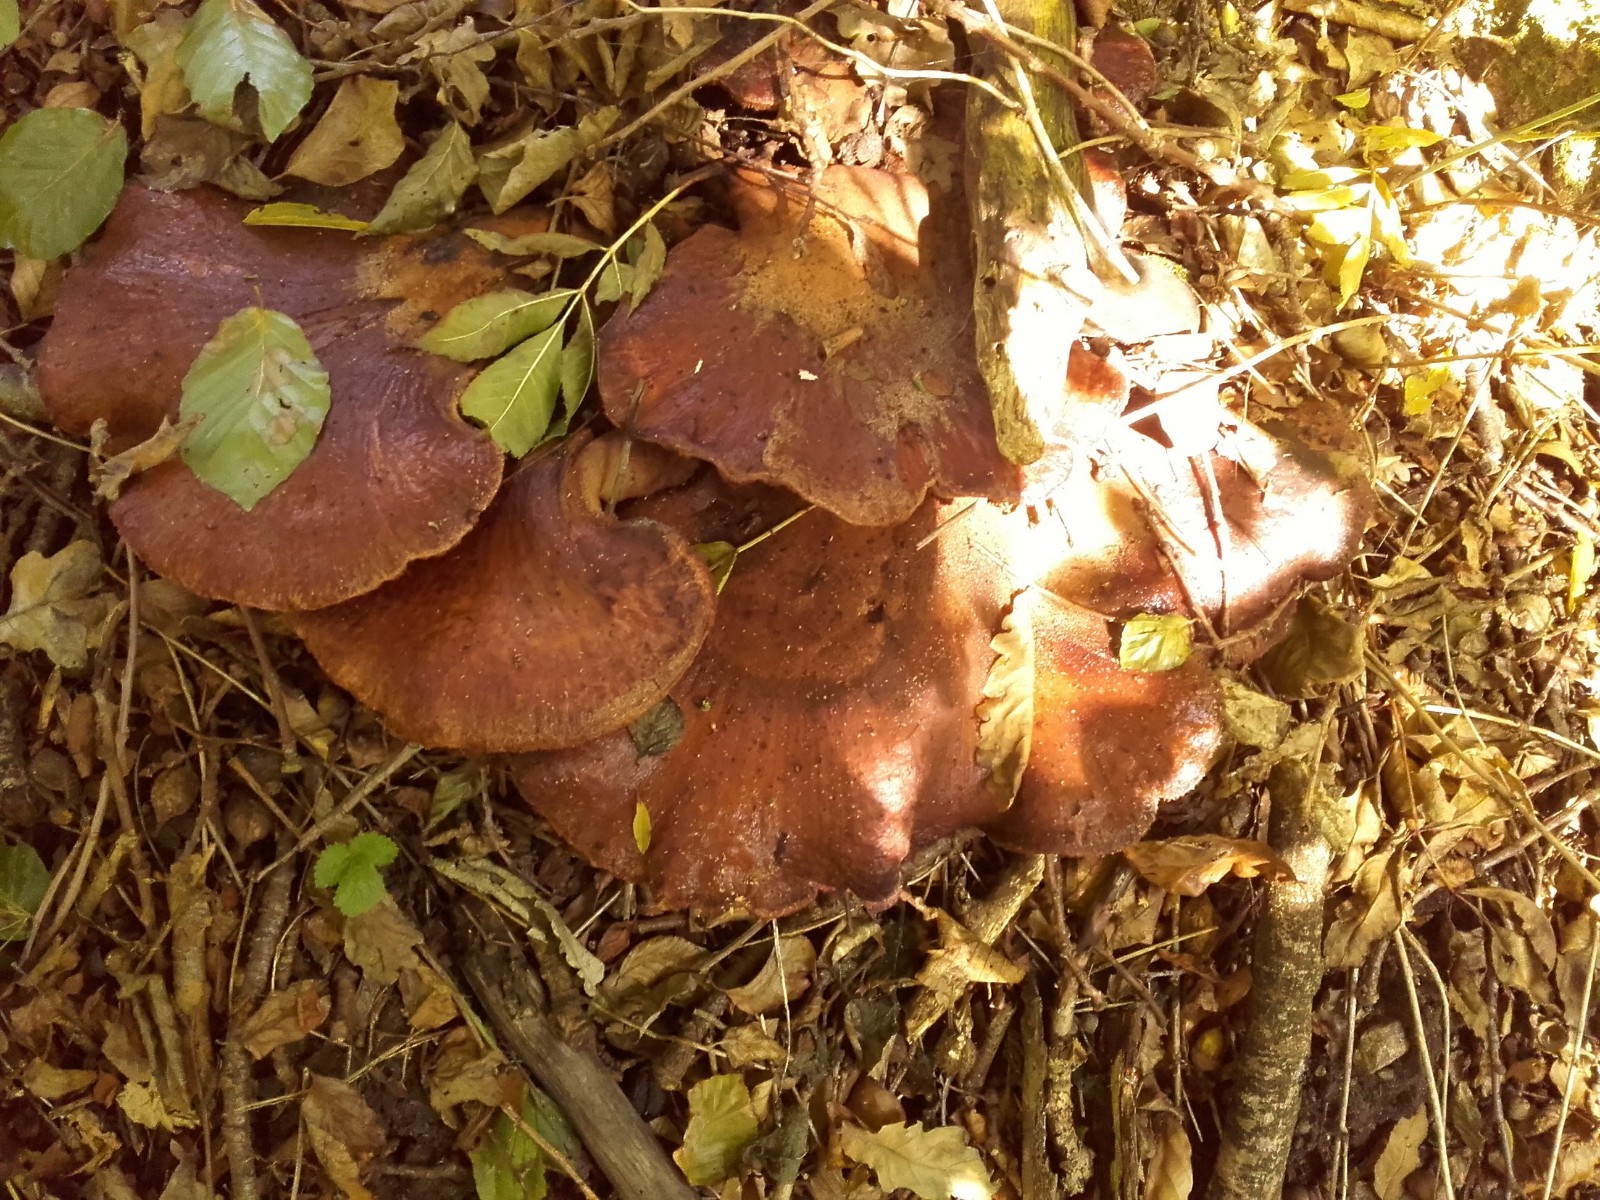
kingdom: Fungi
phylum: Basidiomycota
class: Agaricomycetes
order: Agaricales
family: Fistulinaceae
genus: Fistulina
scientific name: Fistulina hepatica
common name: oksetunge
